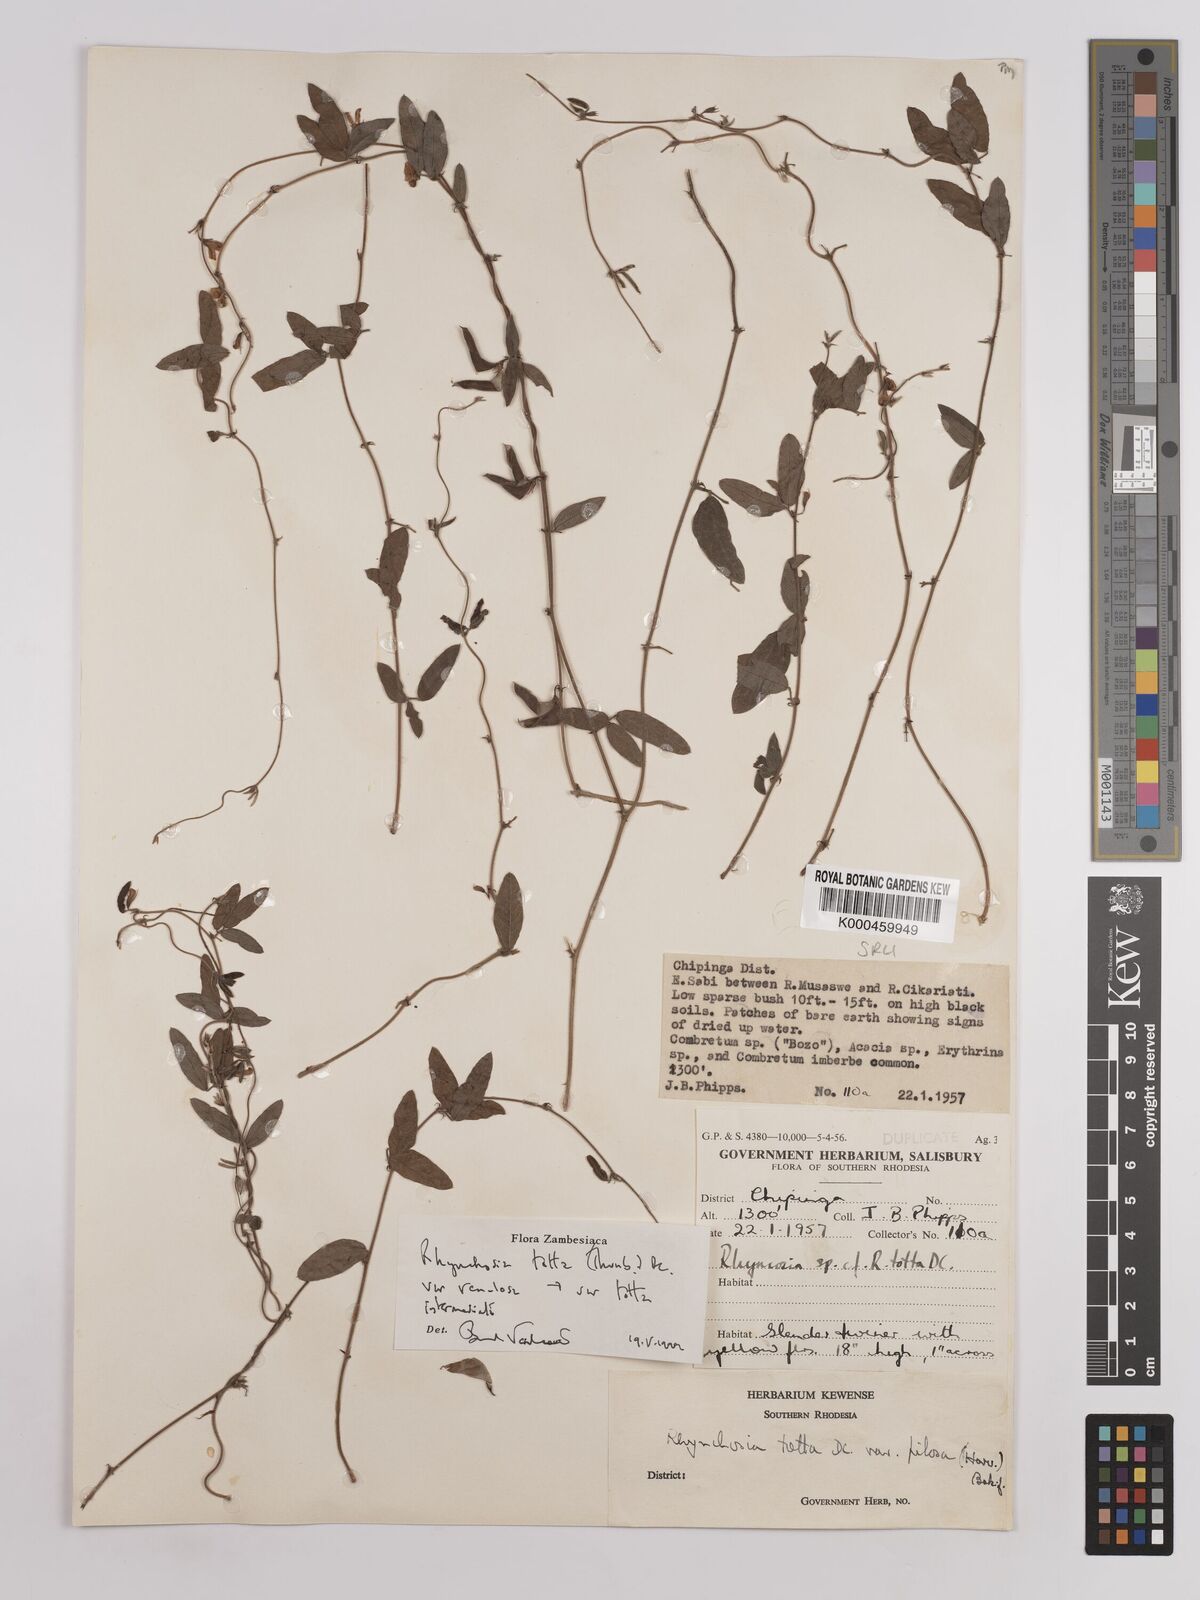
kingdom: Plantae
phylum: Tracheophyta
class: Magnoliopsida
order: Fabales
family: Fabaceae
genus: Rhynchosia
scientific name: Rhynchosia totta
